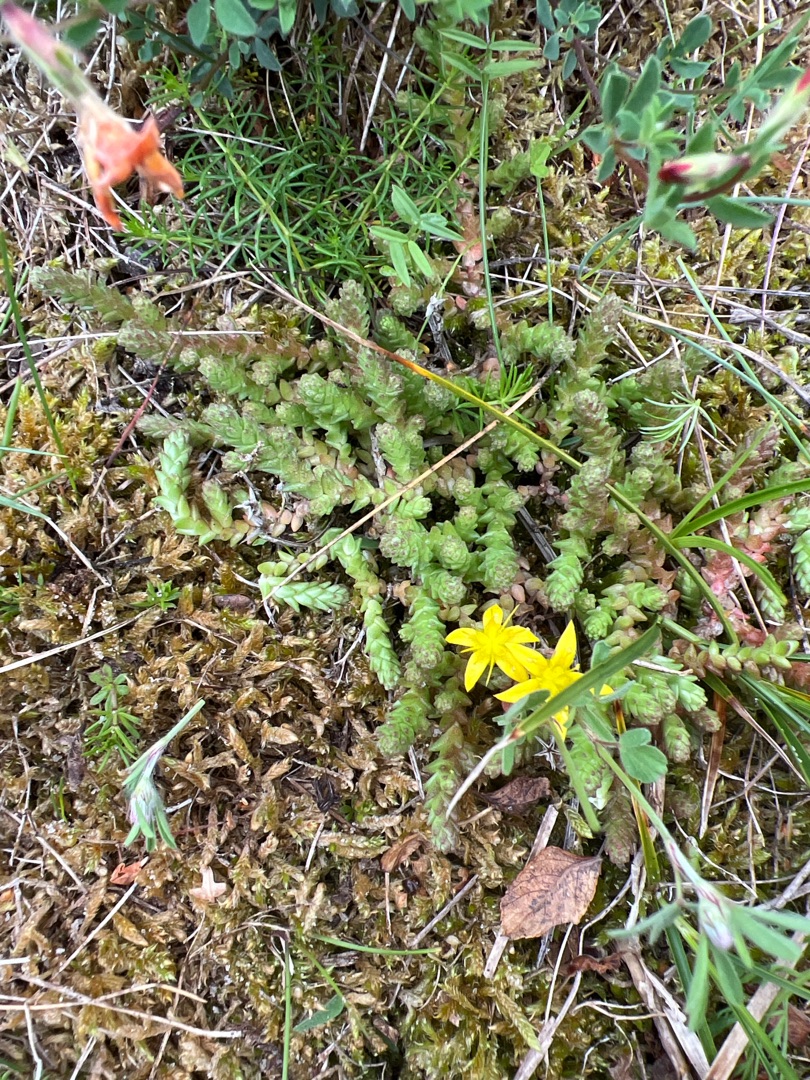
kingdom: Plantae
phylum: Tracheophyta
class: Magnoliopsida
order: Saxifragales
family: Crassulaceae
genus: Sedum
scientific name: Sedum acre
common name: Bidende stenurt
